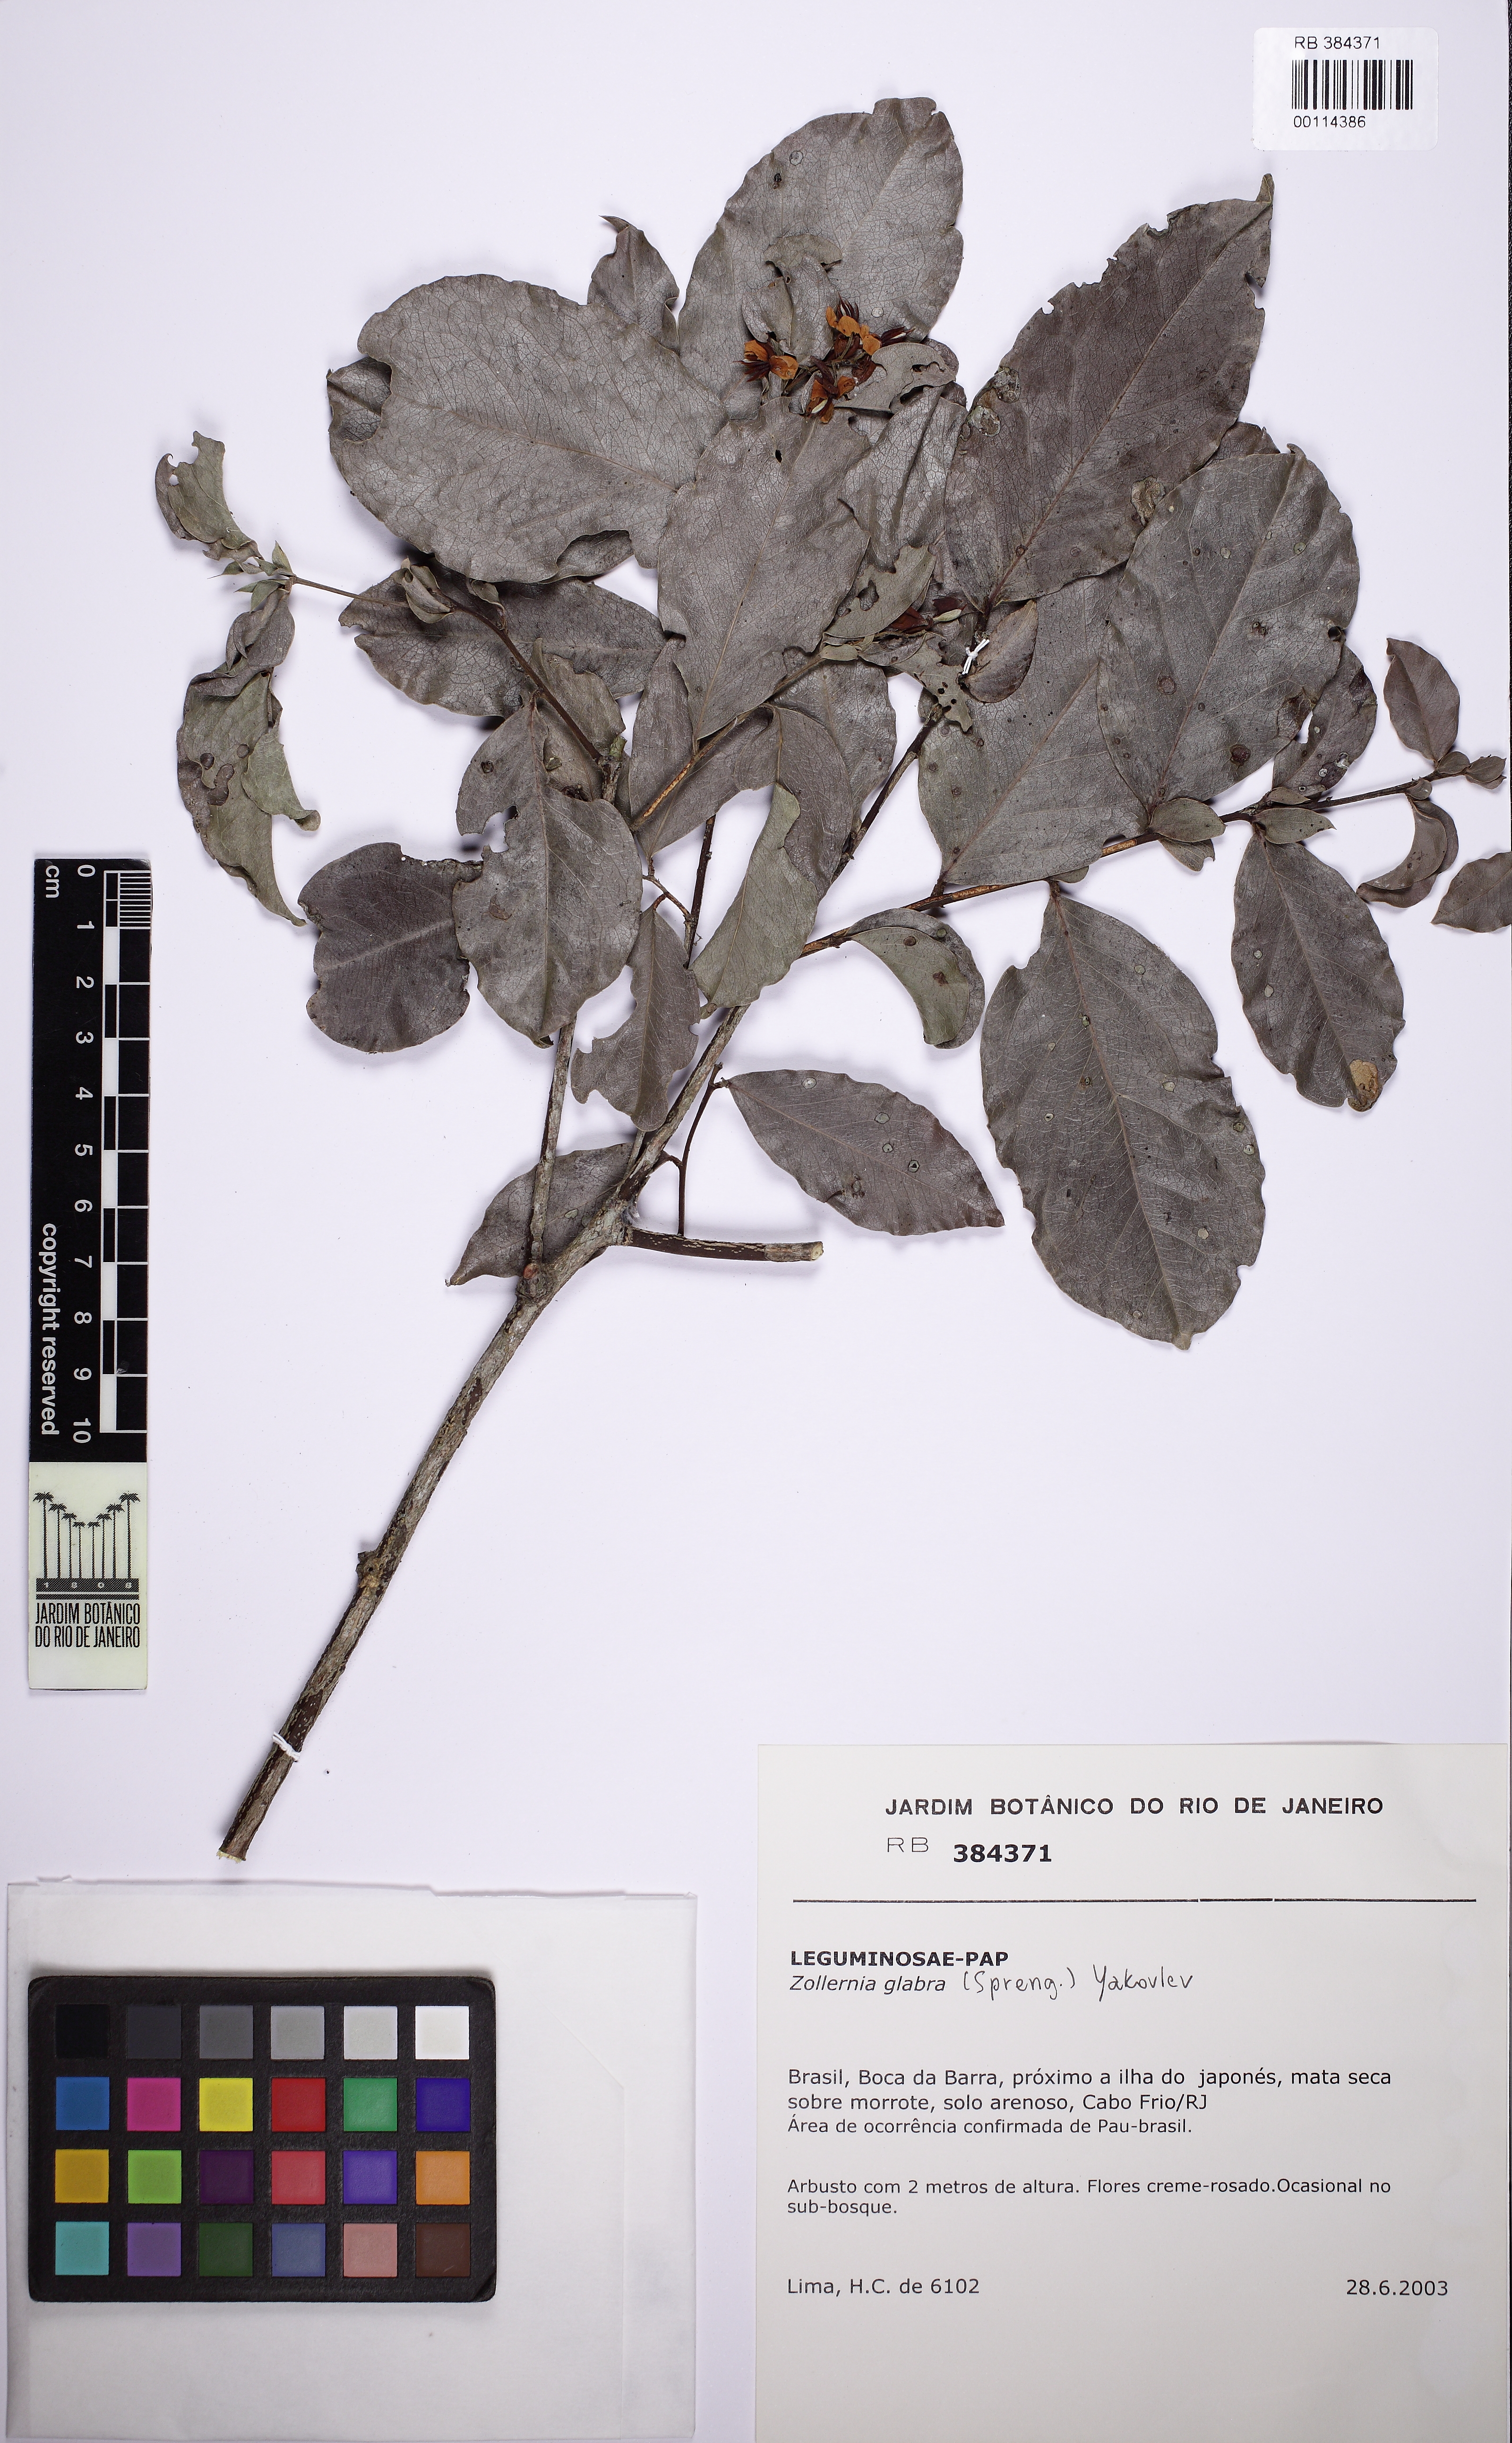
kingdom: Plantae
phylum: Tracheophyta
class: Magnoliopsida
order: Fabales
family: Fabaceae
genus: Zollernia
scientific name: Zollernia glabra
